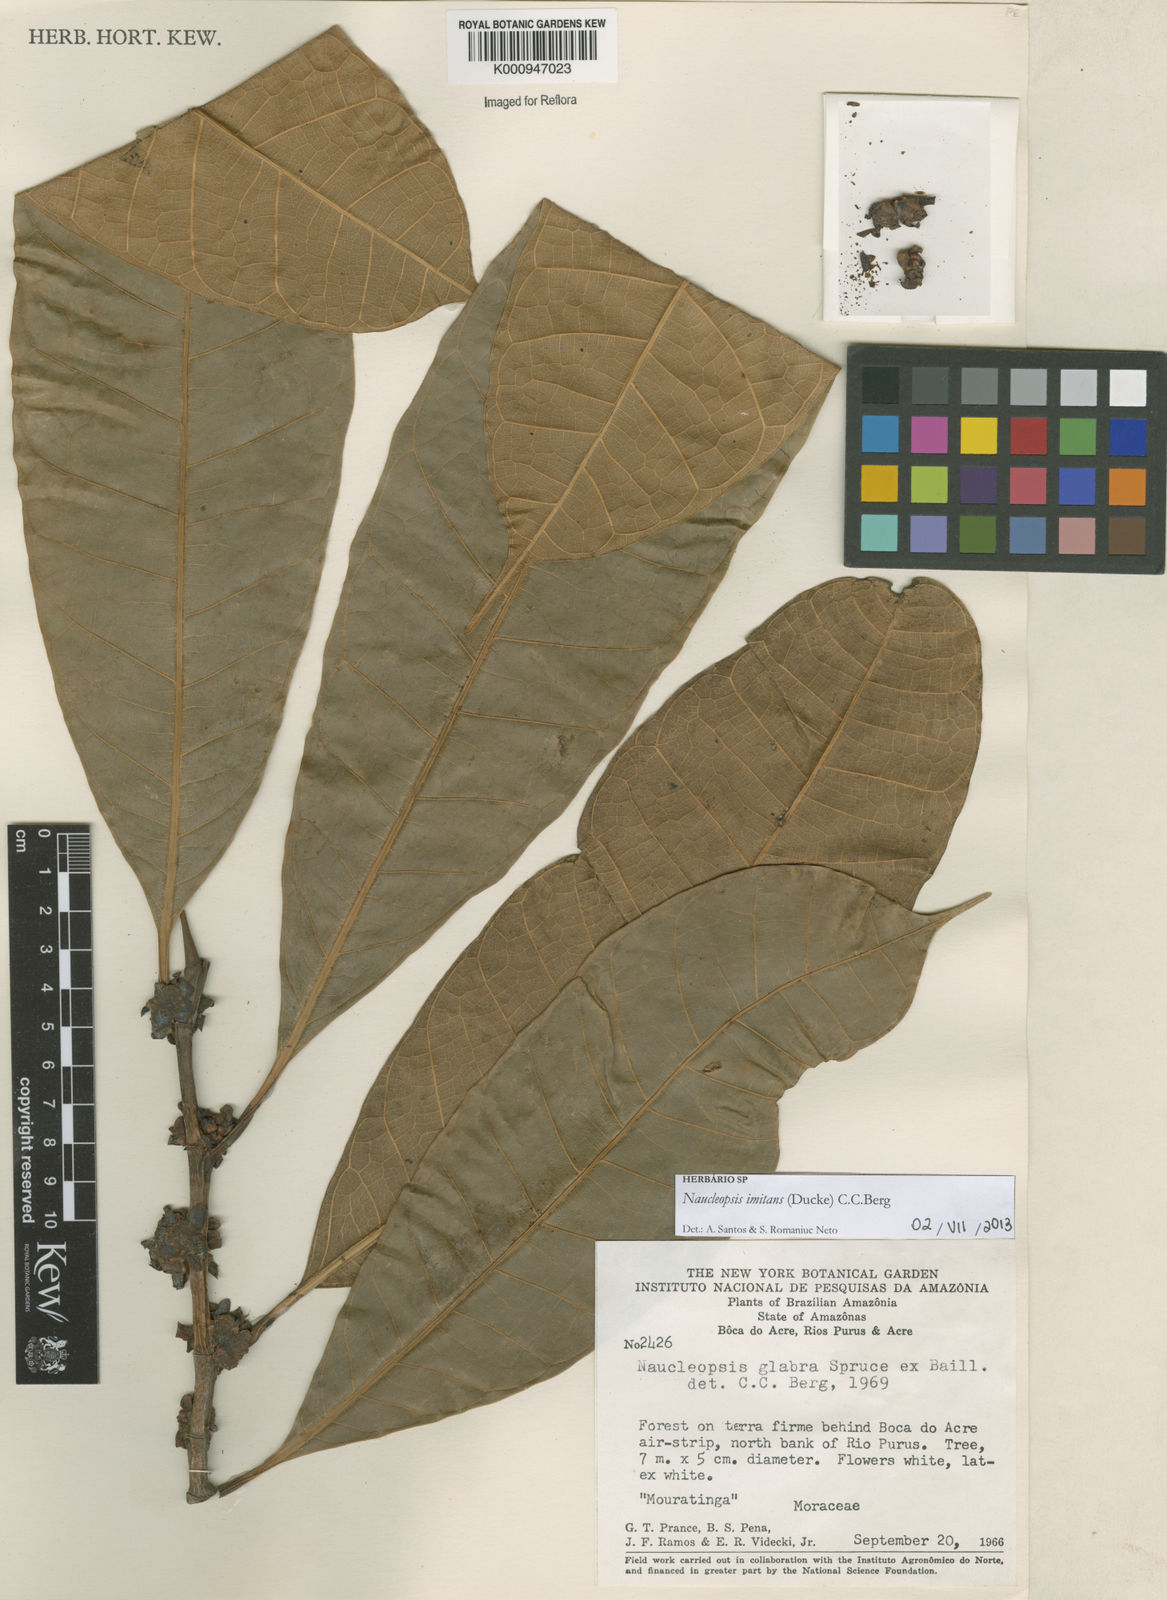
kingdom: Plantae
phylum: Tracheophyta
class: Magnoliopsida
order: Rosales
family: Moraceae
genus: Naucleopsis
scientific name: Naucleopsis imitans
